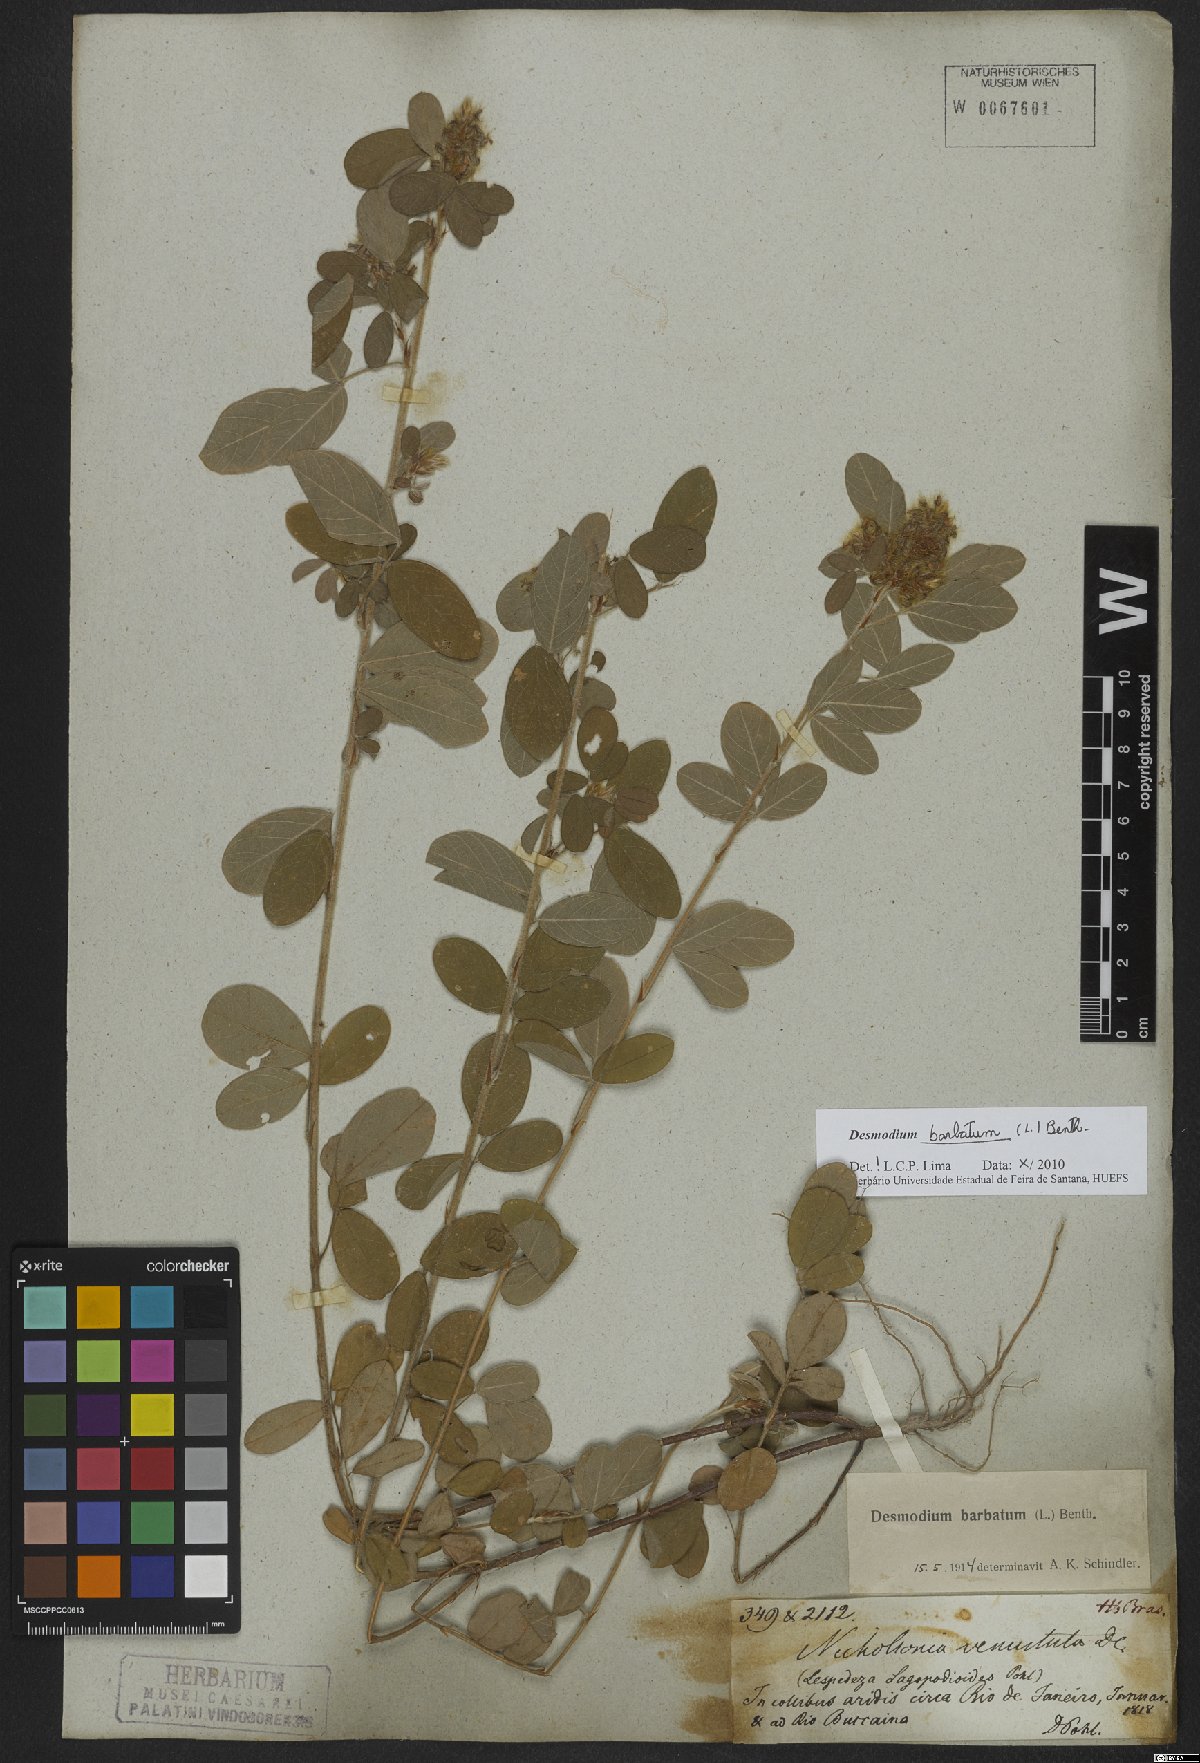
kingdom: Plantae
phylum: Tracheophyta
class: Magnoliopsida
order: Fabales
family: Fabaceae
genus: Grona
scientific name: Grona barbata
